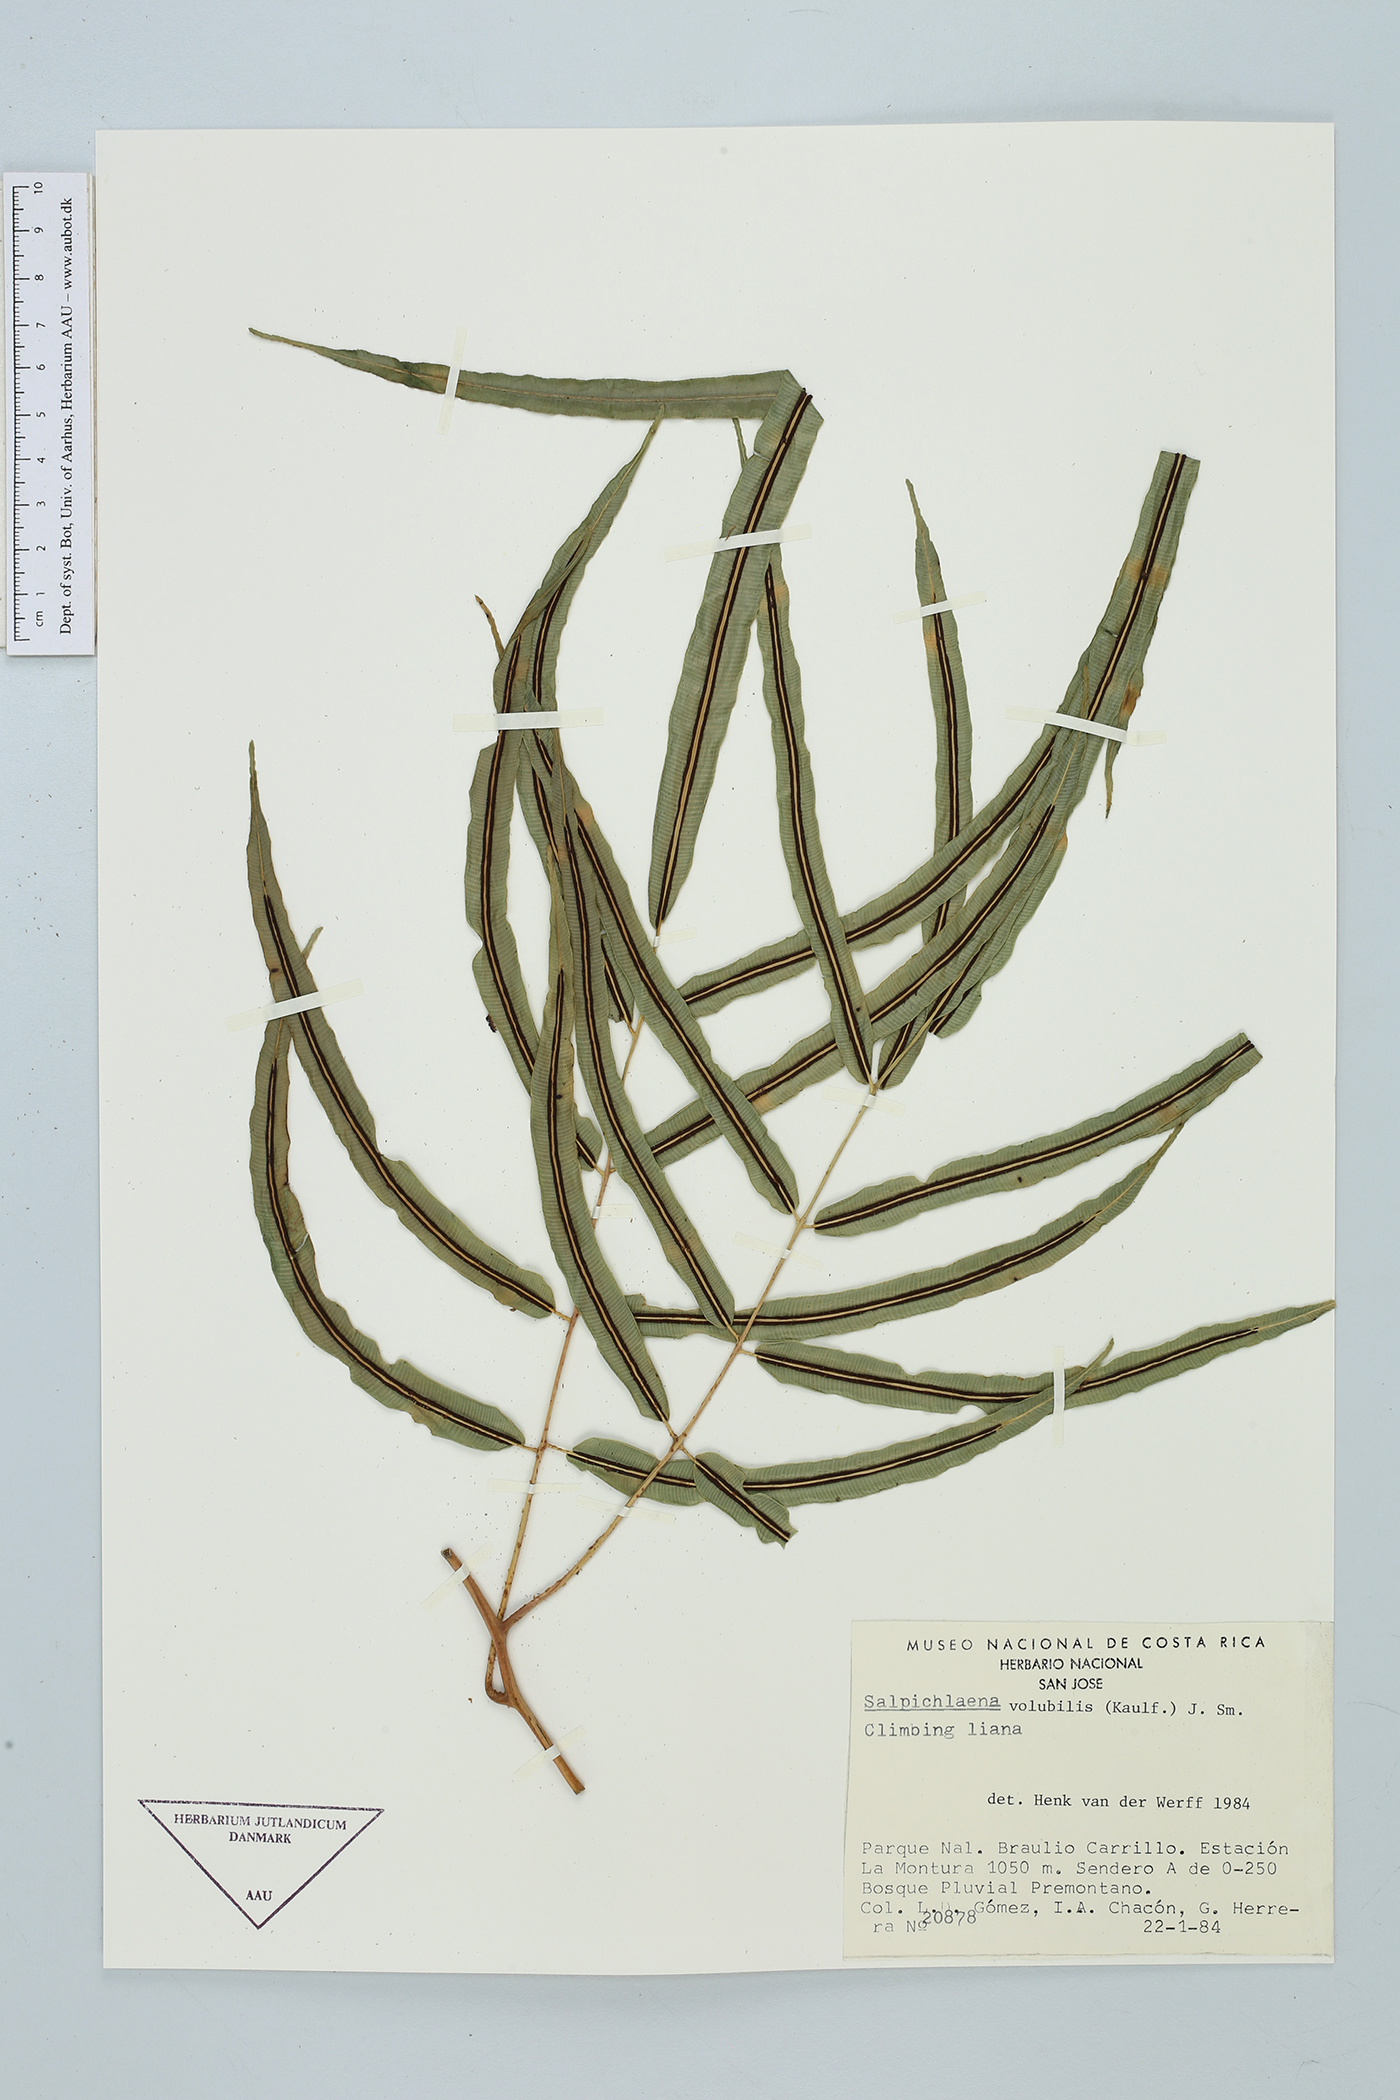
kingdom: Plantae
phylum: Tracheophyta
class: Polypodiopsida
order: Polypodiales
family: Blechnaceae
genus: Salpichlaena
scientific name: Salpichlaena papyrus
